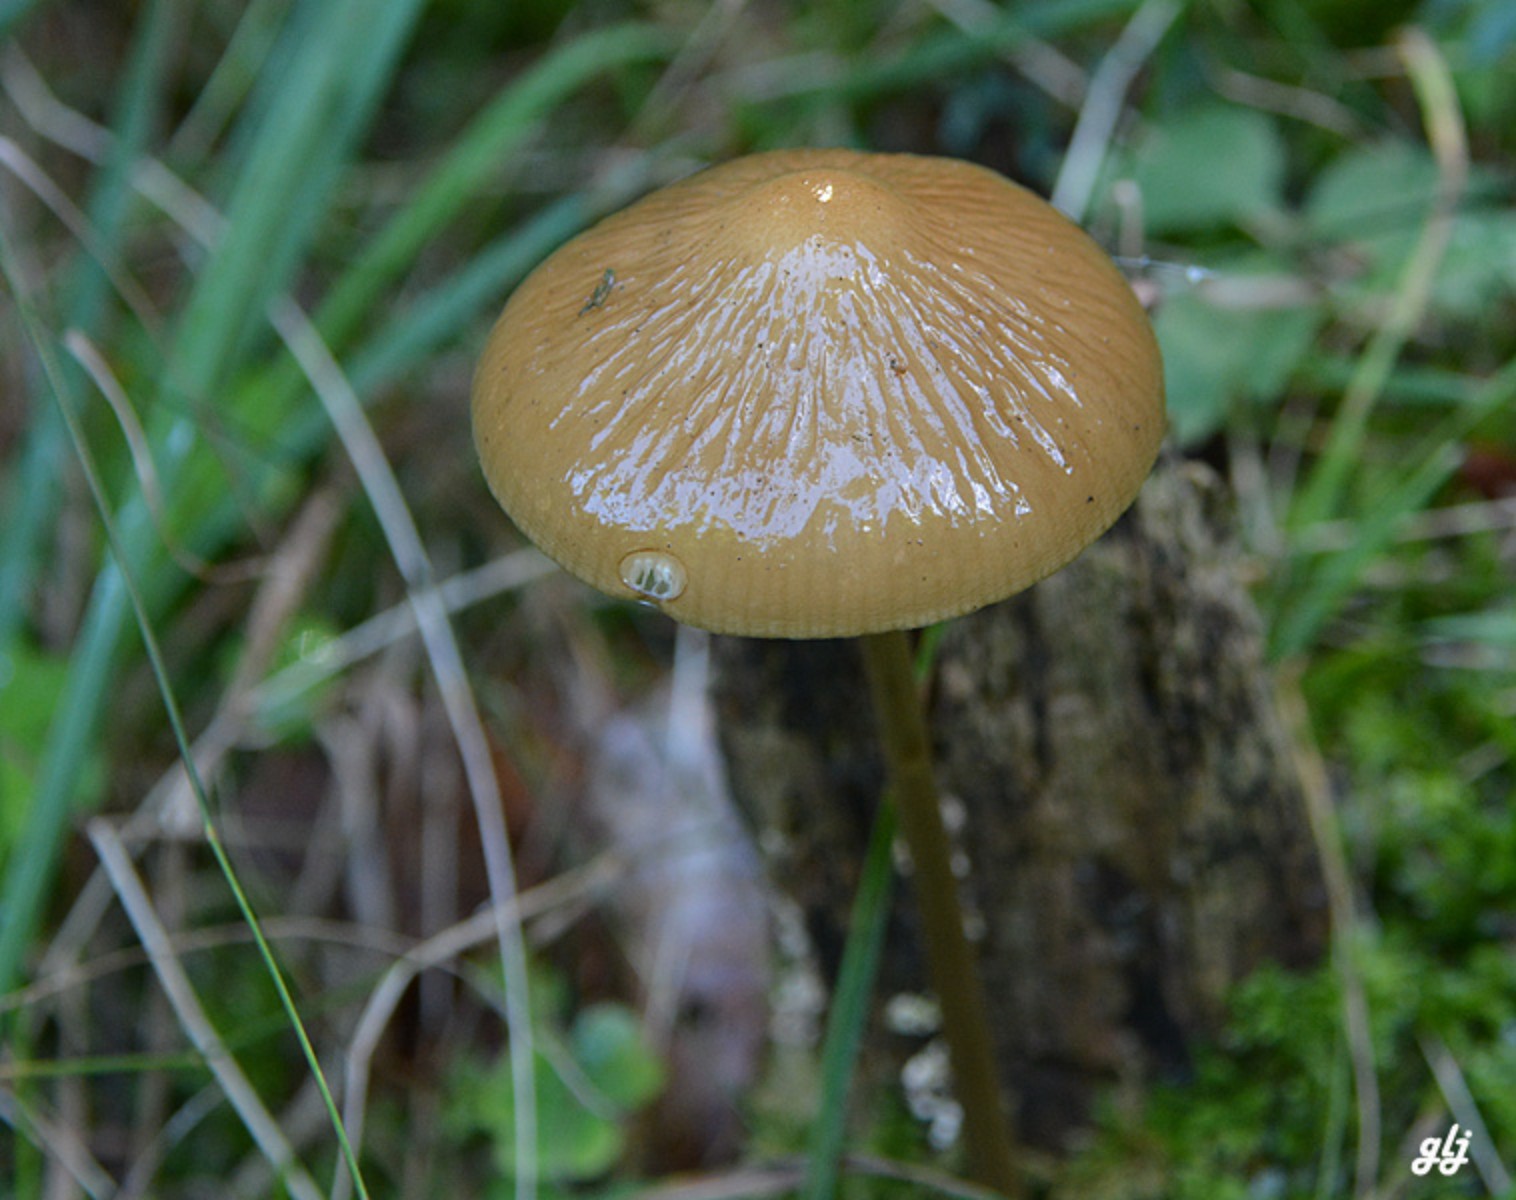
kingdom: Fungi
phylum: Basidiomycota
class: Agaricomycetes
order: Agaricales
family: Physalacriaceae
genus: Hymenopellis
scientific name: Hymenopellis radicata
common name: almindelig pælerodshat
